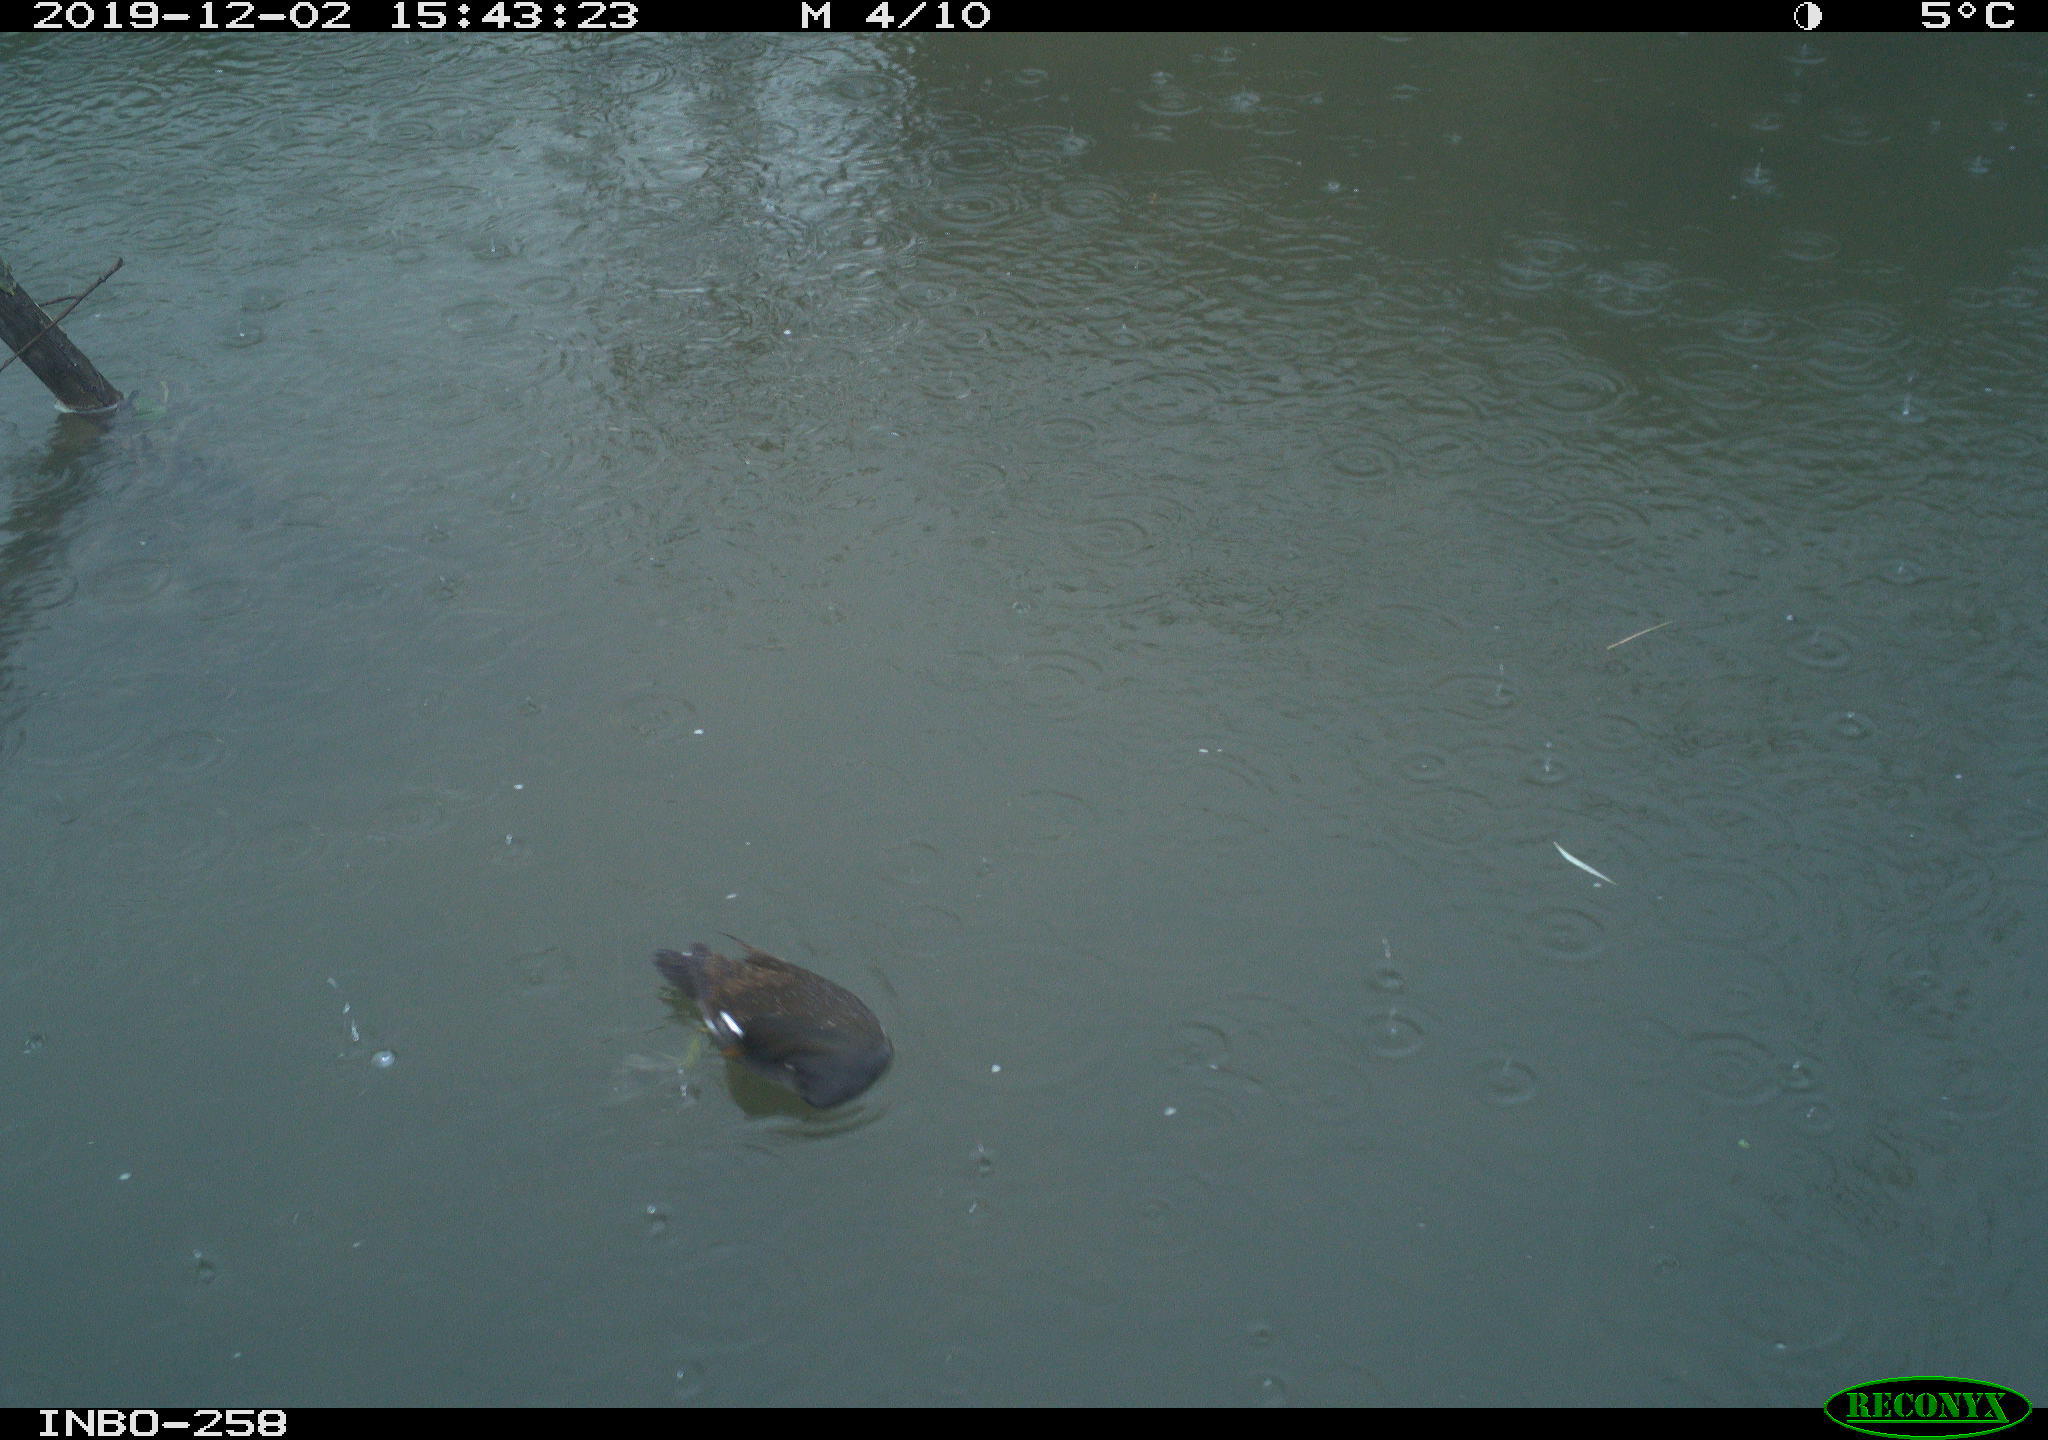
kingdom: Animalia
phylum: Chordata
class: Aves
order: Gruiformes
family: Rallidae
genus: Gallinula
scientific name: Gallinula chloropus
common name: Common moorhen
